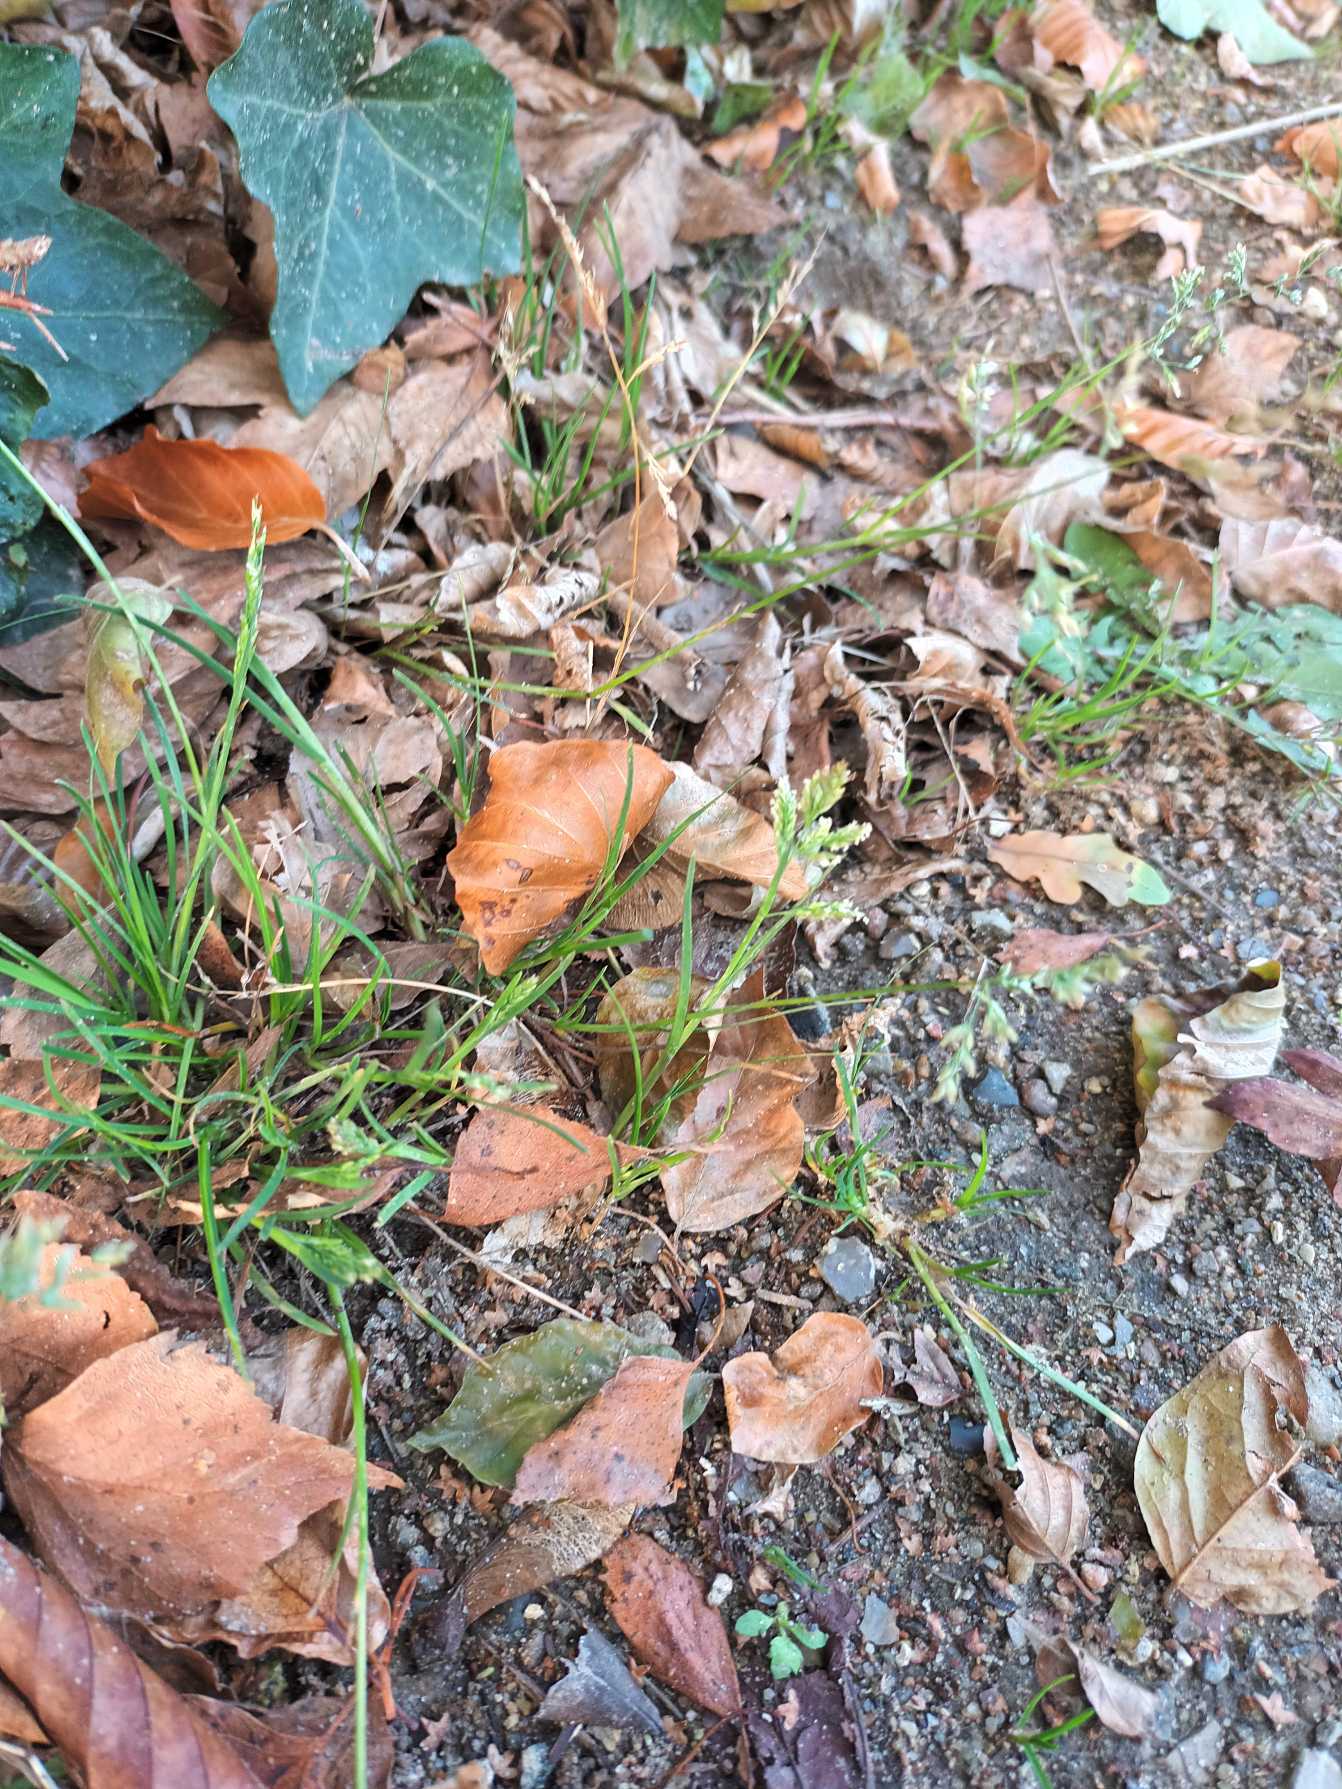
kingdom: Plantae
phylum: Tracheophyta
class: Liliopsida
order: Poales
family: Poaceae
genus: Poa
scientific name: Poa annua
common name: Enårig rapgræs
